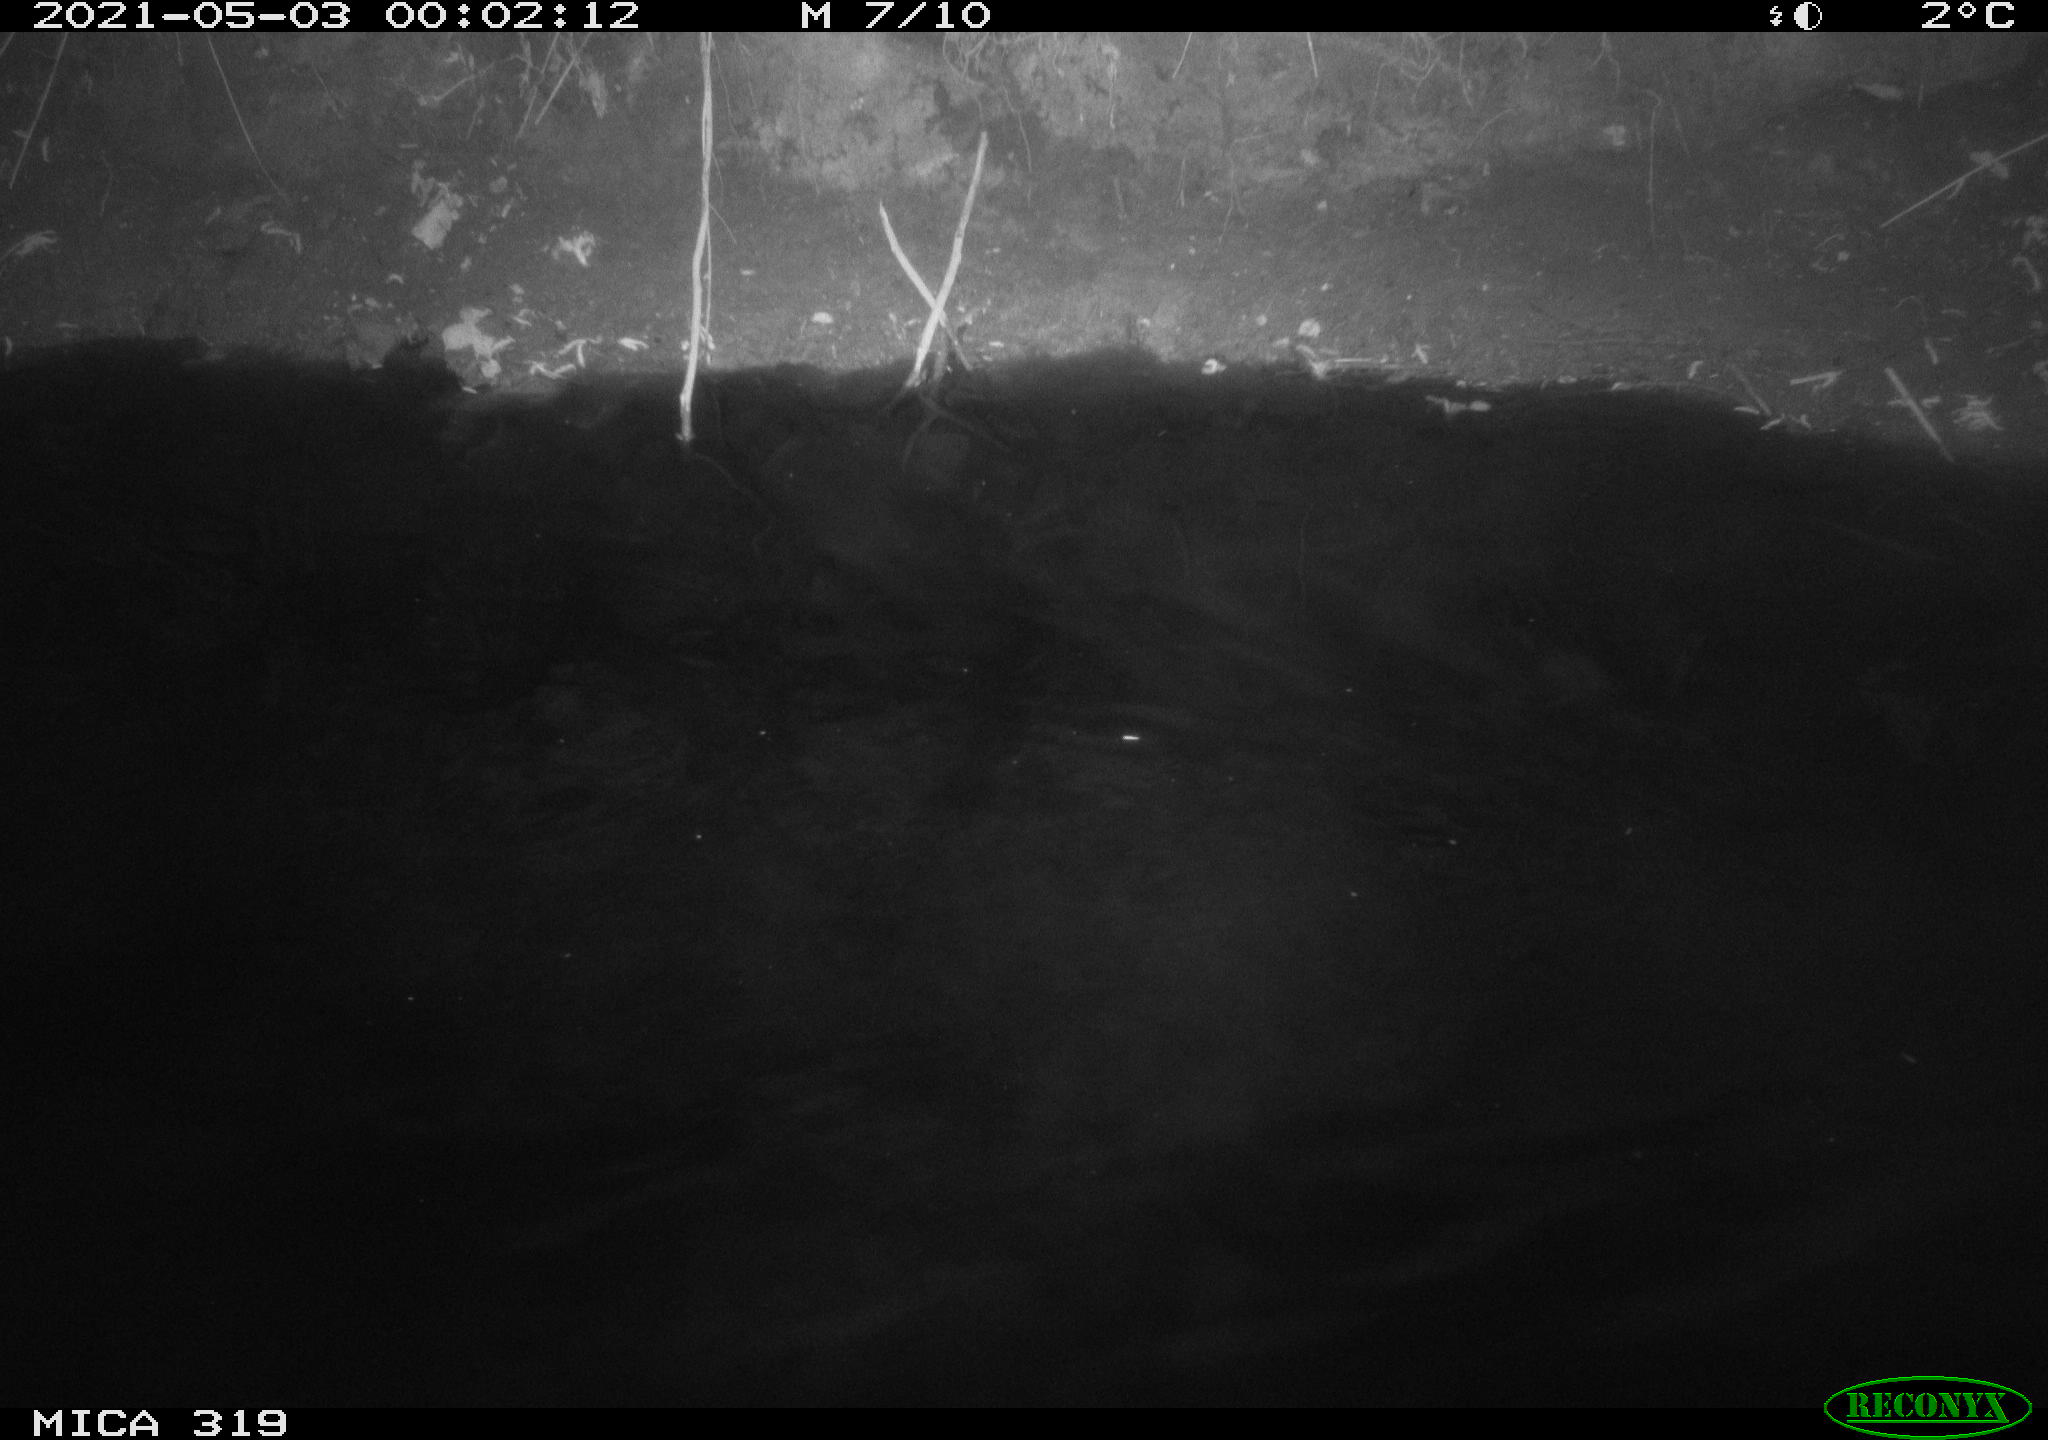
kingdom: Animalia
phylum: Chordata
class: Aves
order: Anseriformes
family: Anatidae
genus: Anas
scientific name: Anas platyrhynchos
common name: Mallard
